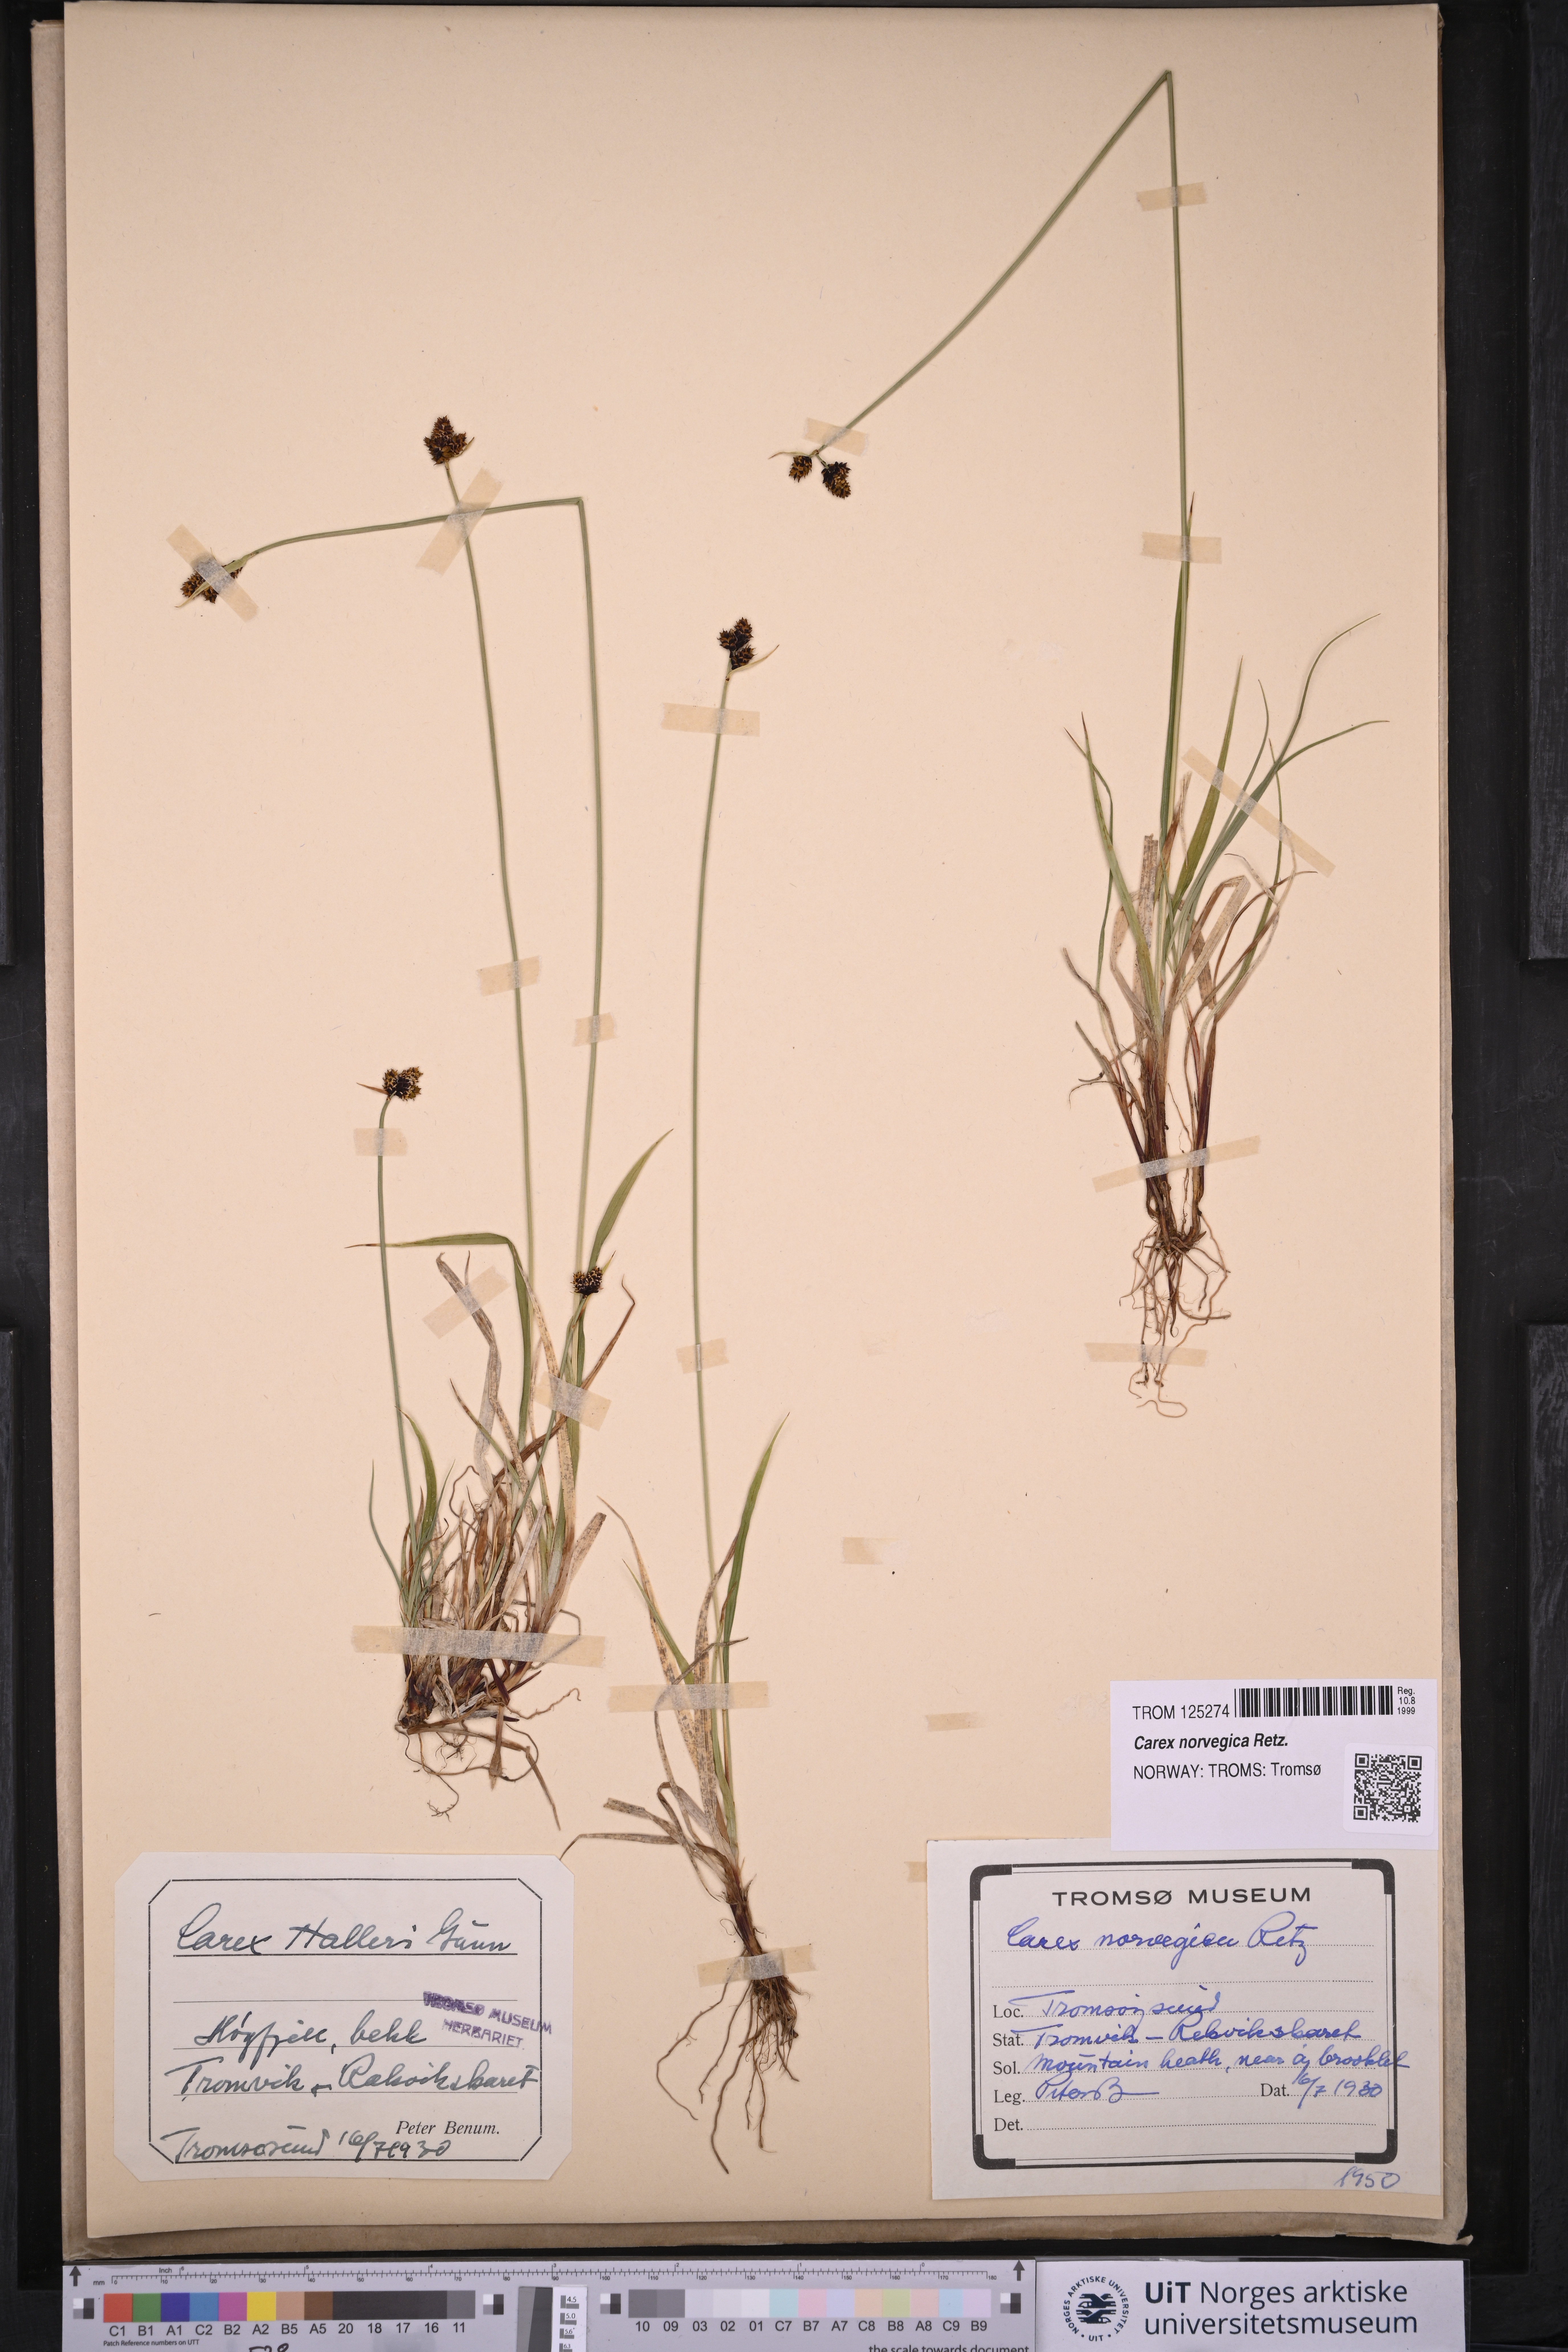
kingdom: Plantae
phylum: Tracheophyta
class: Liliopsida
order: Poales
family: Cyperaceae
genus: Carex
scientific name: Carex norvegica
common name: Close-headed alpine-sedge
